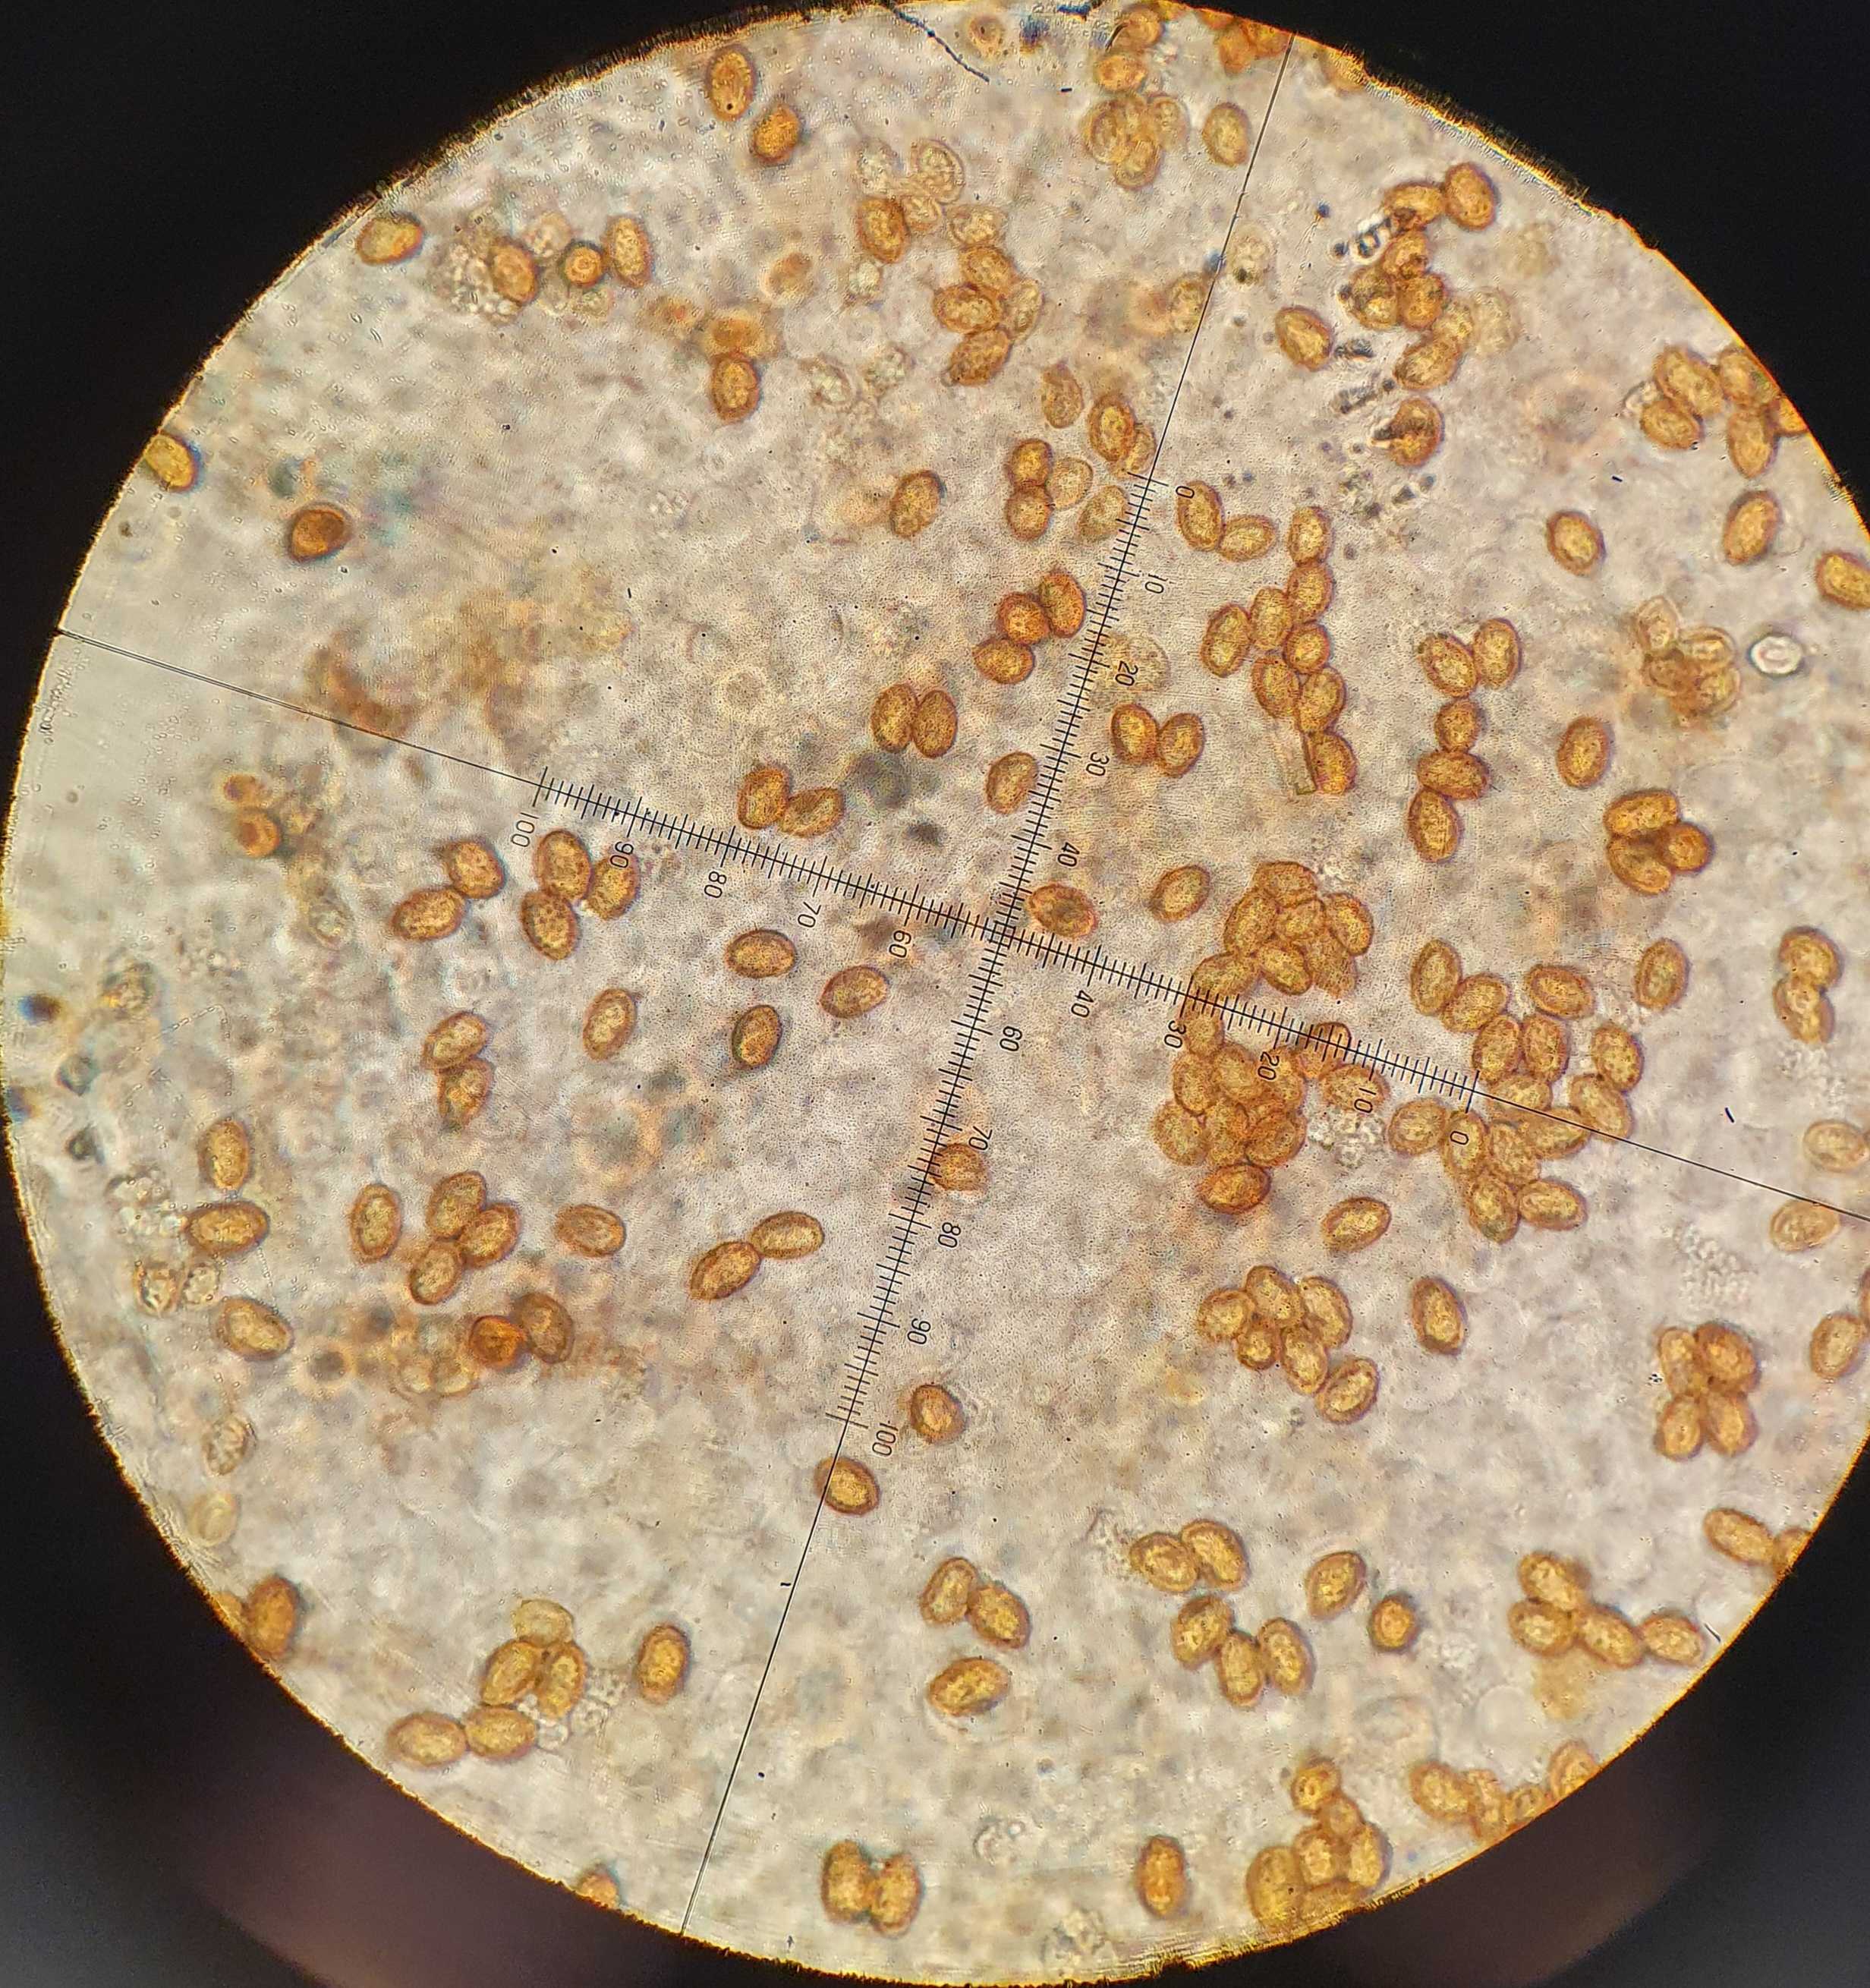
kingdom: Fungi
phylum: Basidiomycota
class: Agaricomycetes
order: Agaricales
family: Hymenogastraceae
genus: Gymnopilus
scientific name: Gymnopilus penetrans
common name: plettet flammehat
